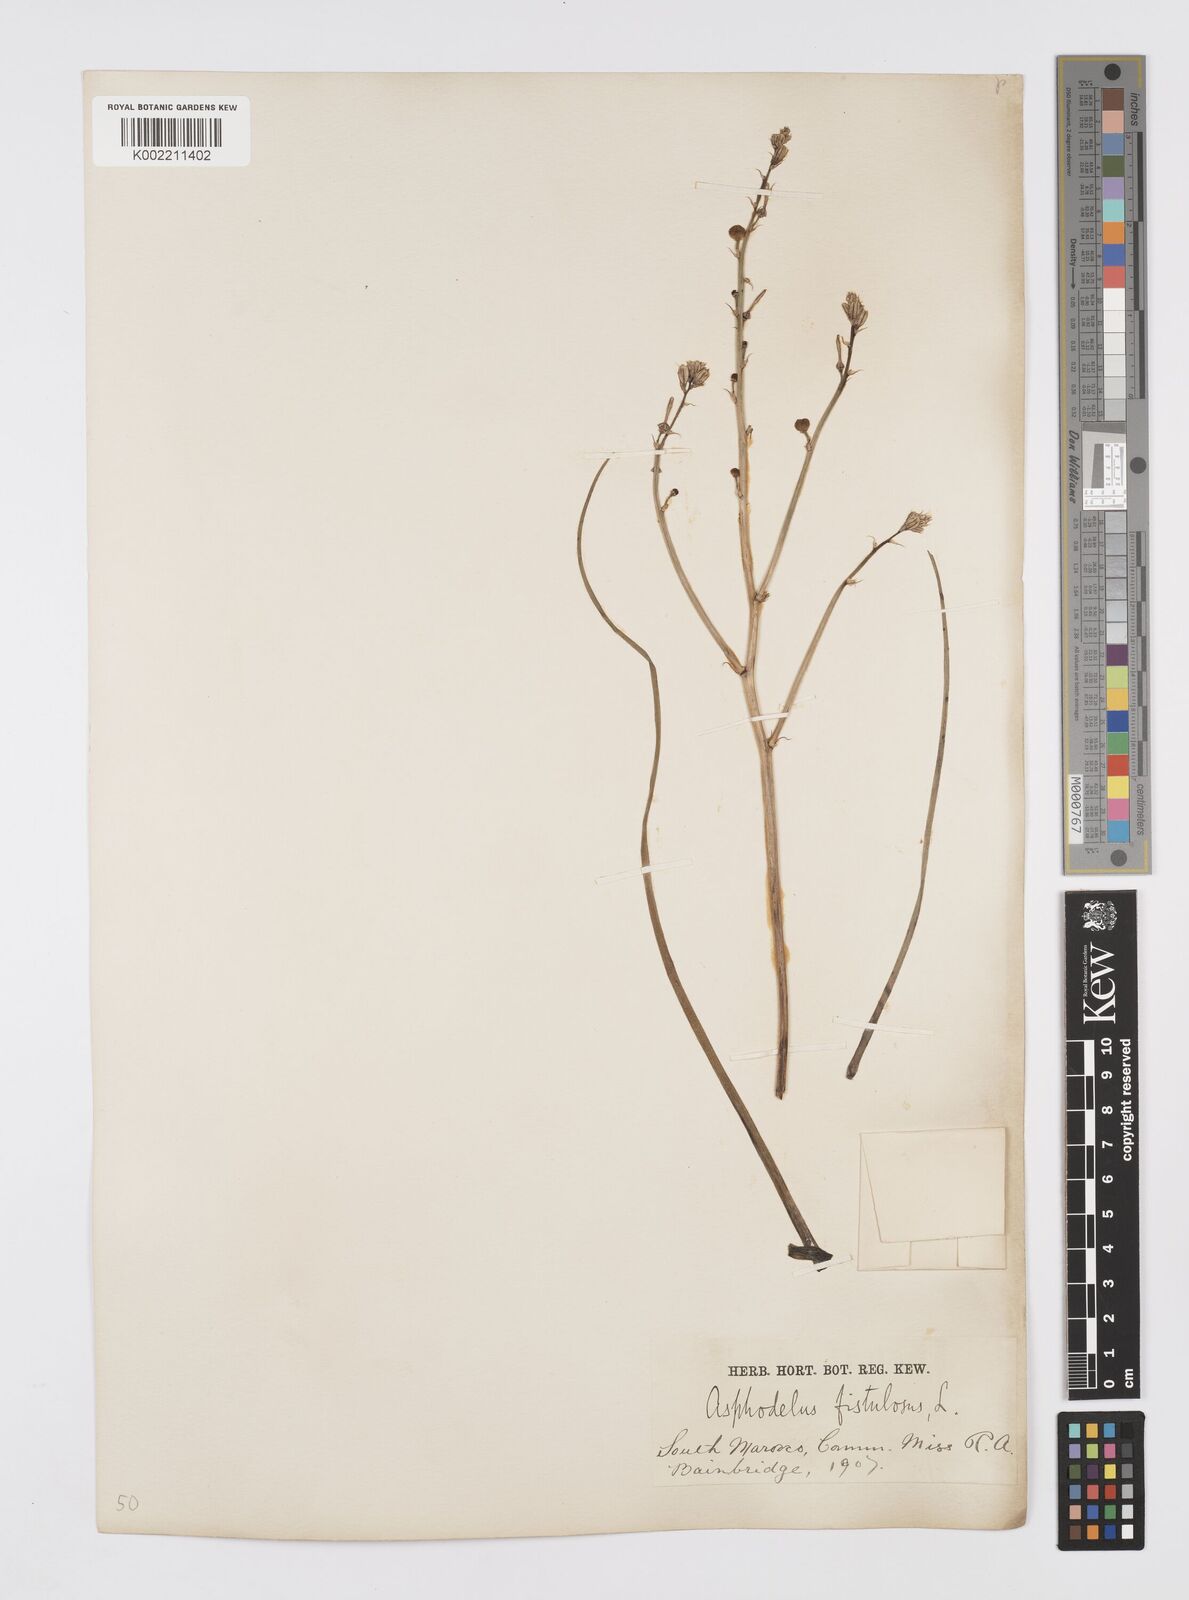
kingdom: Plantae
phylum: Tracheophyta
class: Liliopsida
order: Asparagales
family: Asphodelaceae
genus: Asphodelus
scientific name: Asphodelus fistulosus
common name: Onionweed
